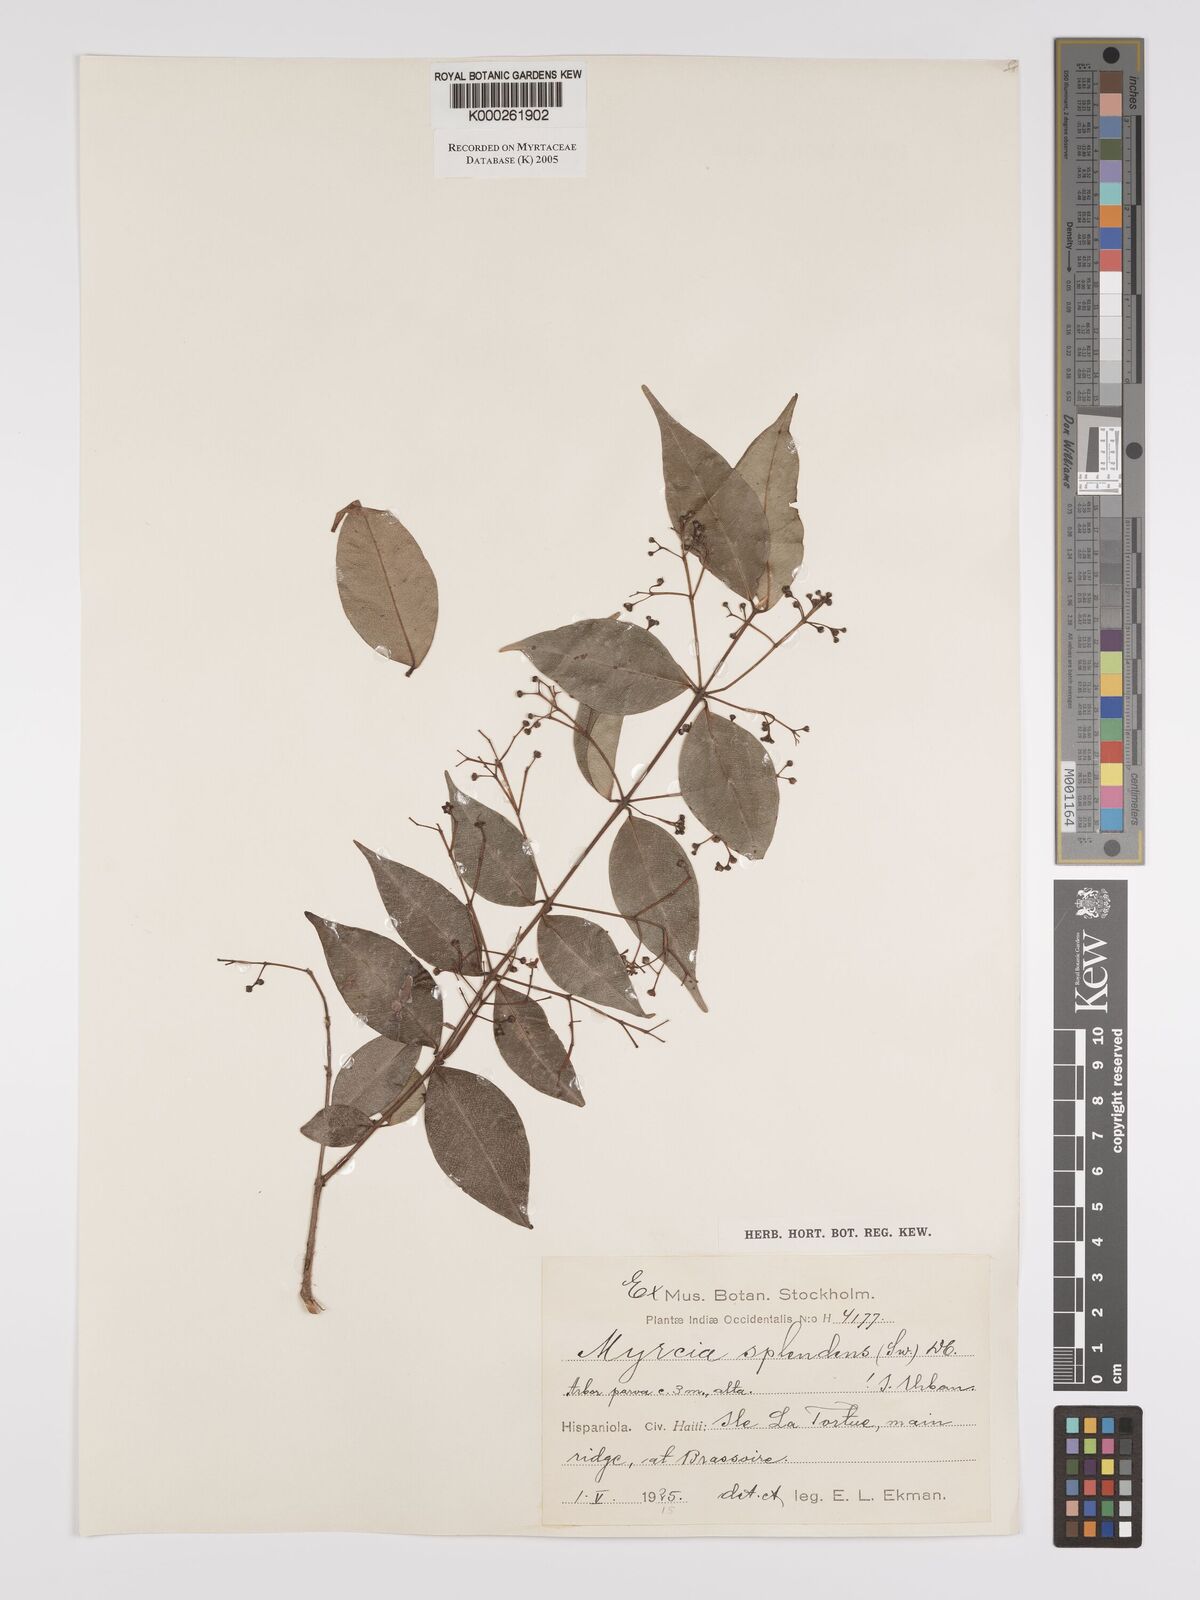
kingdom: Plantae
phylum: Tracheophyta
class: Magnoliopsida
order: Myrtales
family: Myrtaceae
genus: Myrcia
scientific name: Myrcia splendens
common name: Surinam cherry
